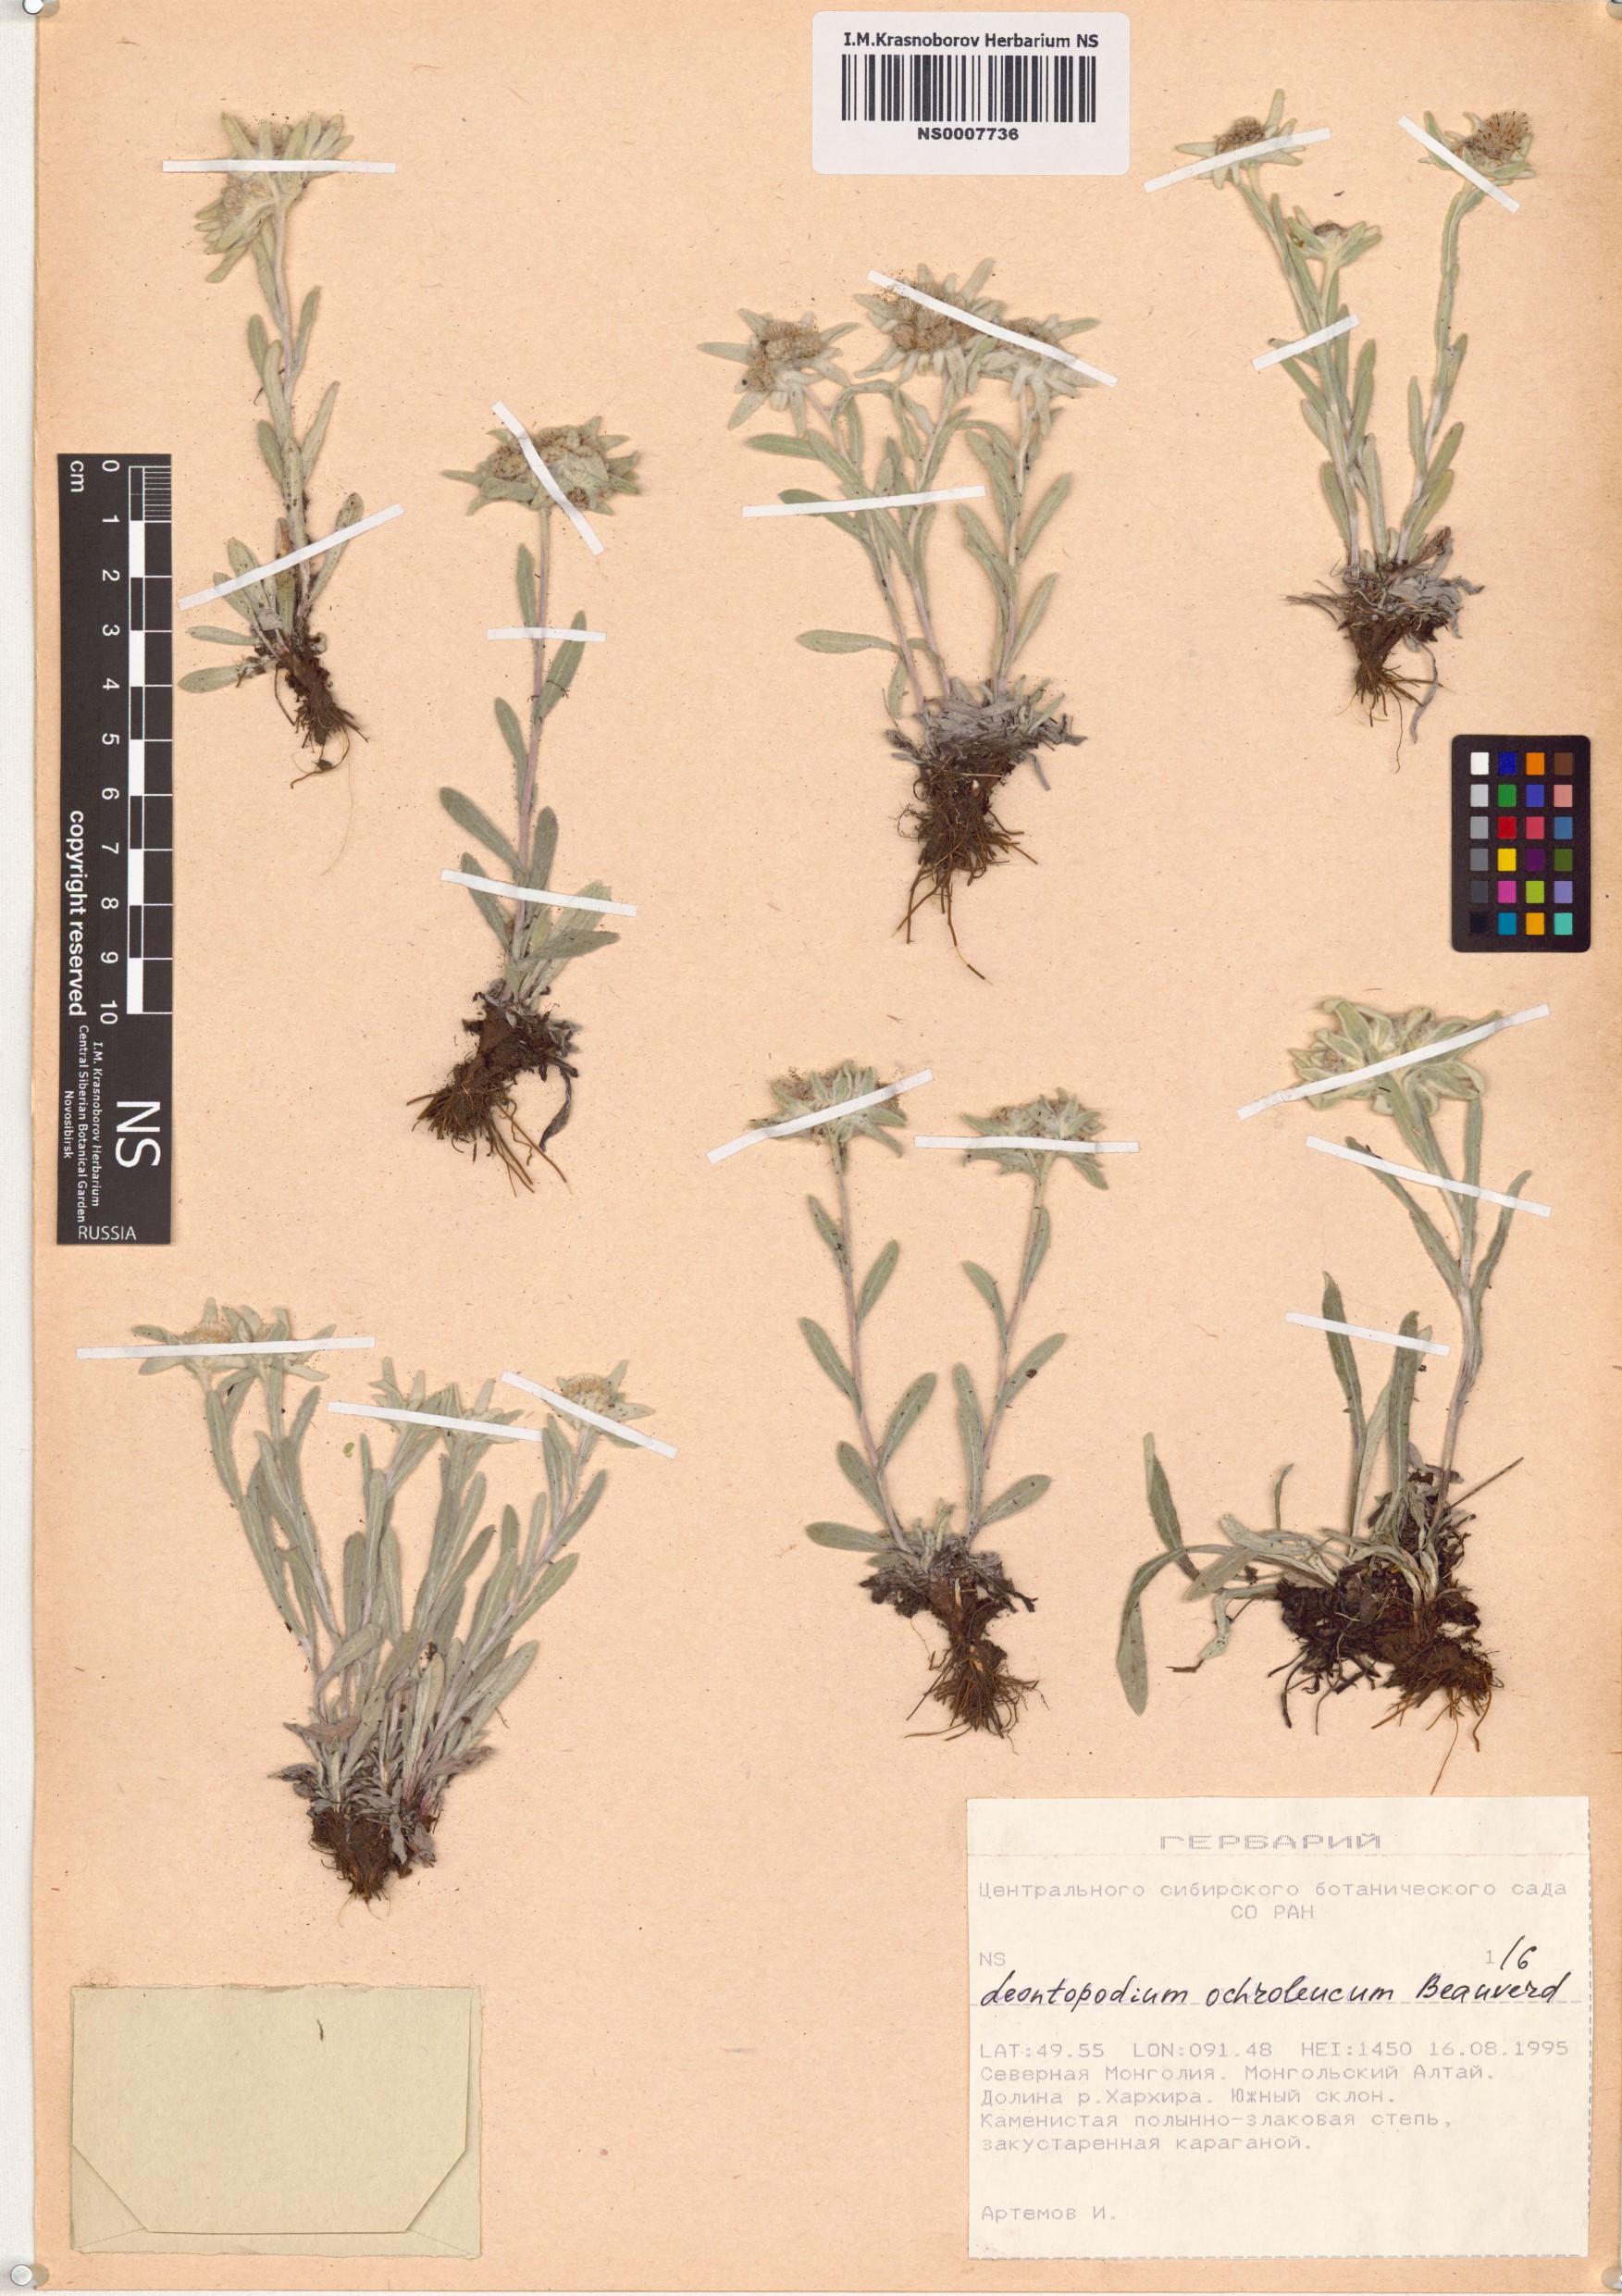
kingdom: Plantae
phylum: Tracheophyta
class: Magnoliopsida
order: Asterales
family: Asteraceae
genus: Leontopodium
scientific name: Leontopodium leontopodinum
